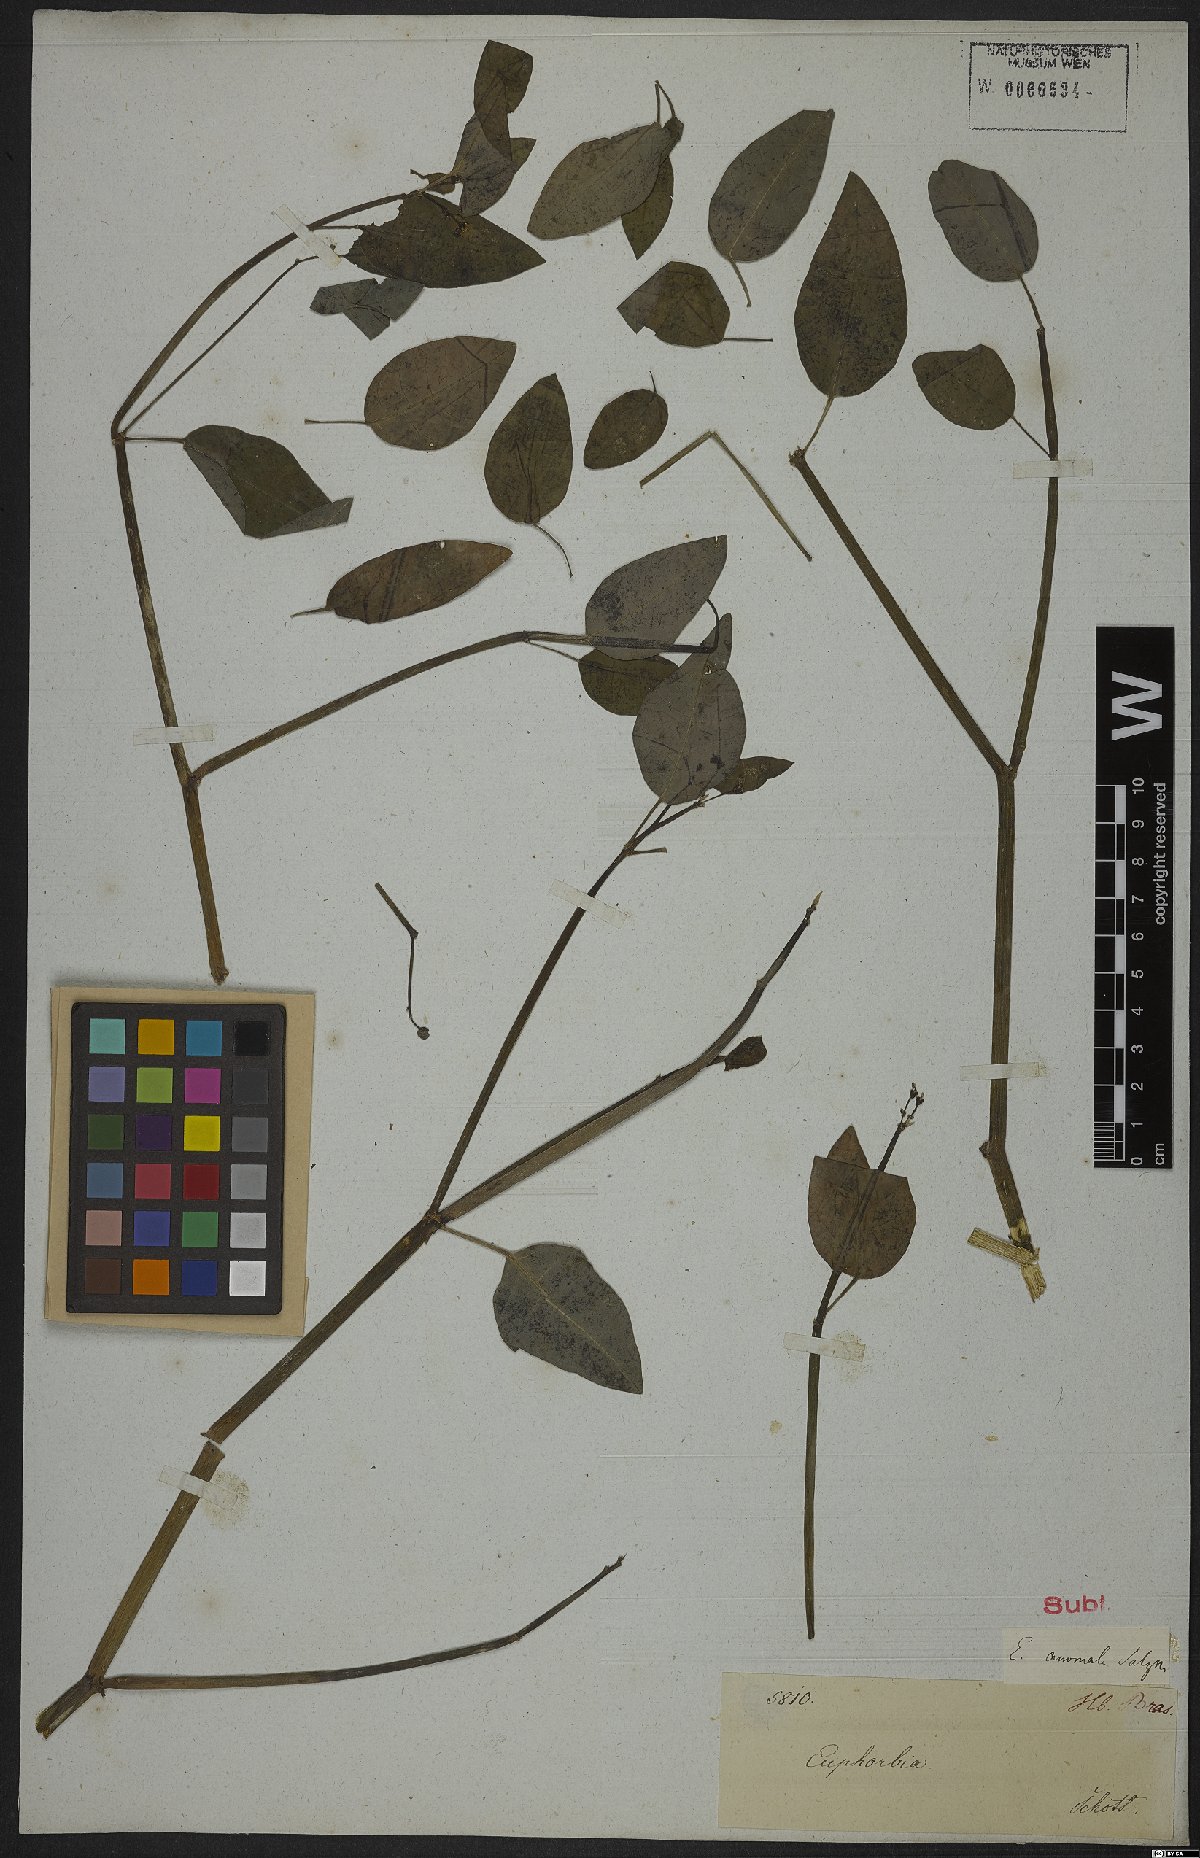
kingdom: Plantae
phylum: Tracheophyta
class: Magnoliopsida
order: Malpighiales
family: Euphorbiaceae
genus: Euphorbia
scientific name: Euphorbia glanduligera
